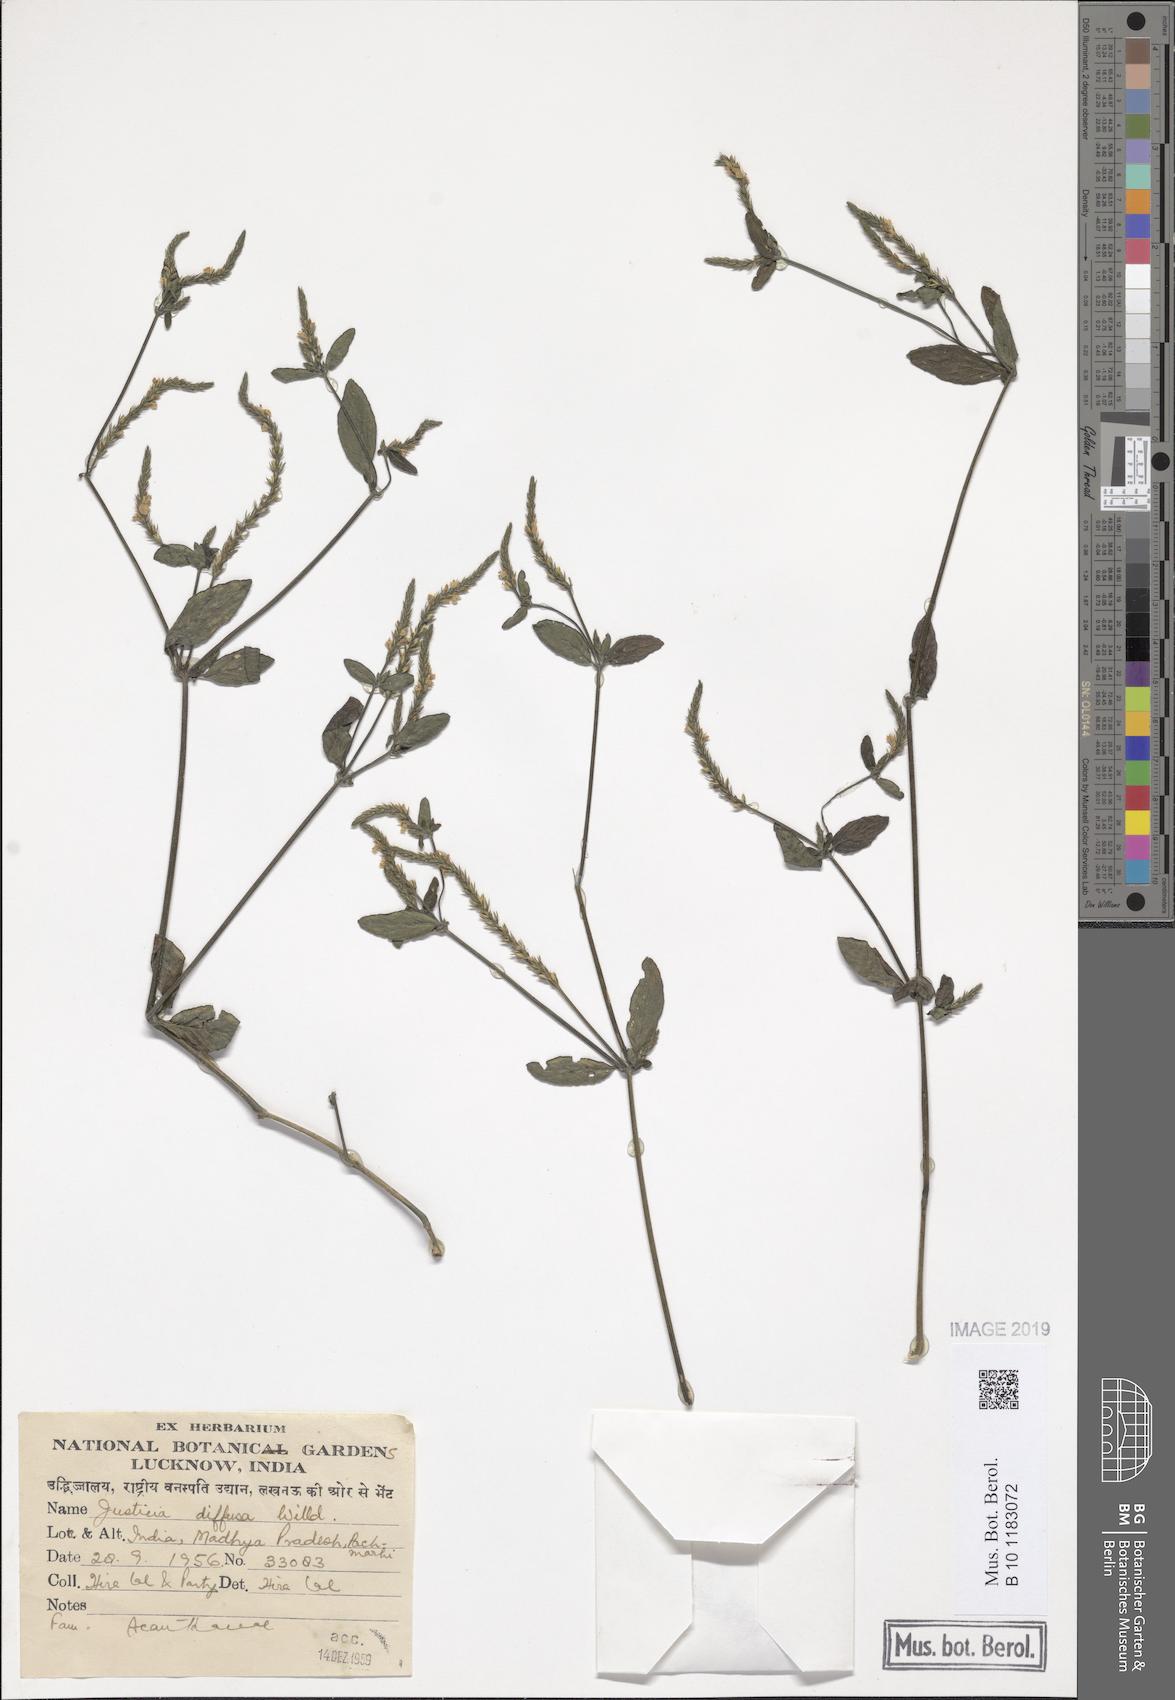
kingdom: Plantae
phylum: Tracheophyta
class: Magnoliopsida
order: Lamiales
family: Acanthaceae
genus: Rostellularia
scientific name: Rostellularia diffusa
